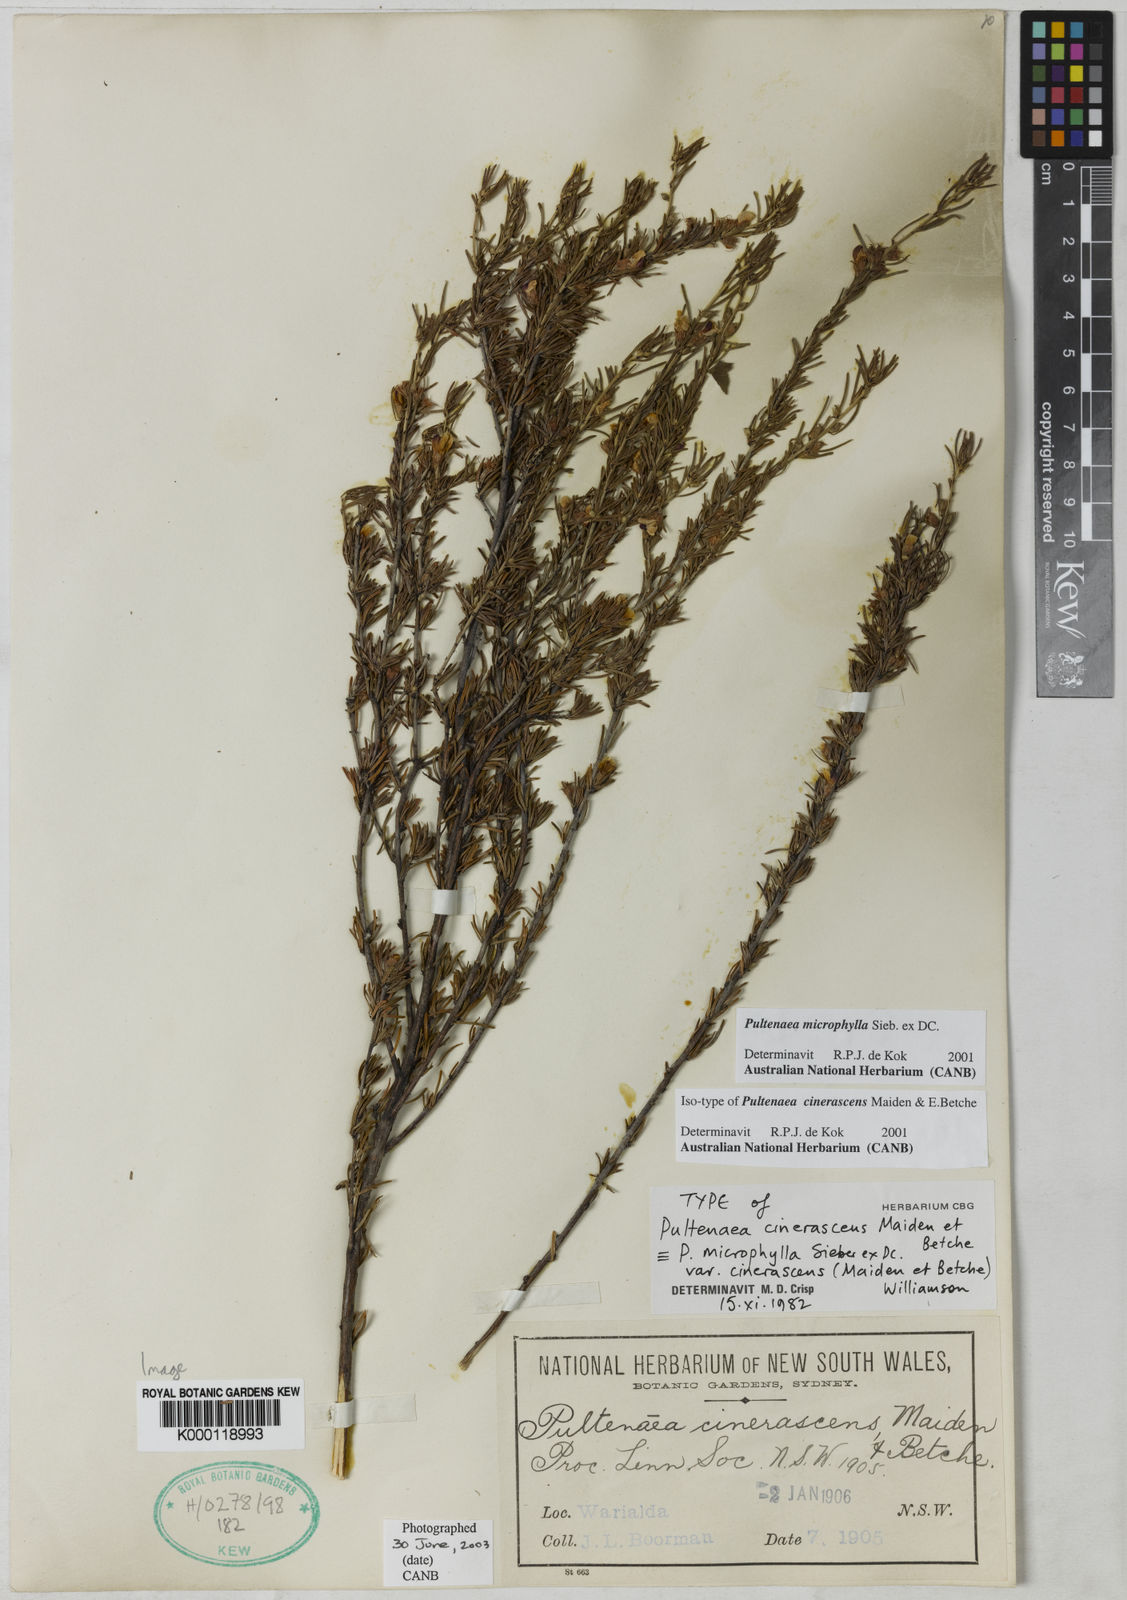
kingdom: Plantae
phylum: Tracheophyta
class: Magnoliopsida
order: Fabales
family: Fabaceae
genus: Pultenaea
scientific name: Pultenaea microphylla
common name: Spreading bush-pea
